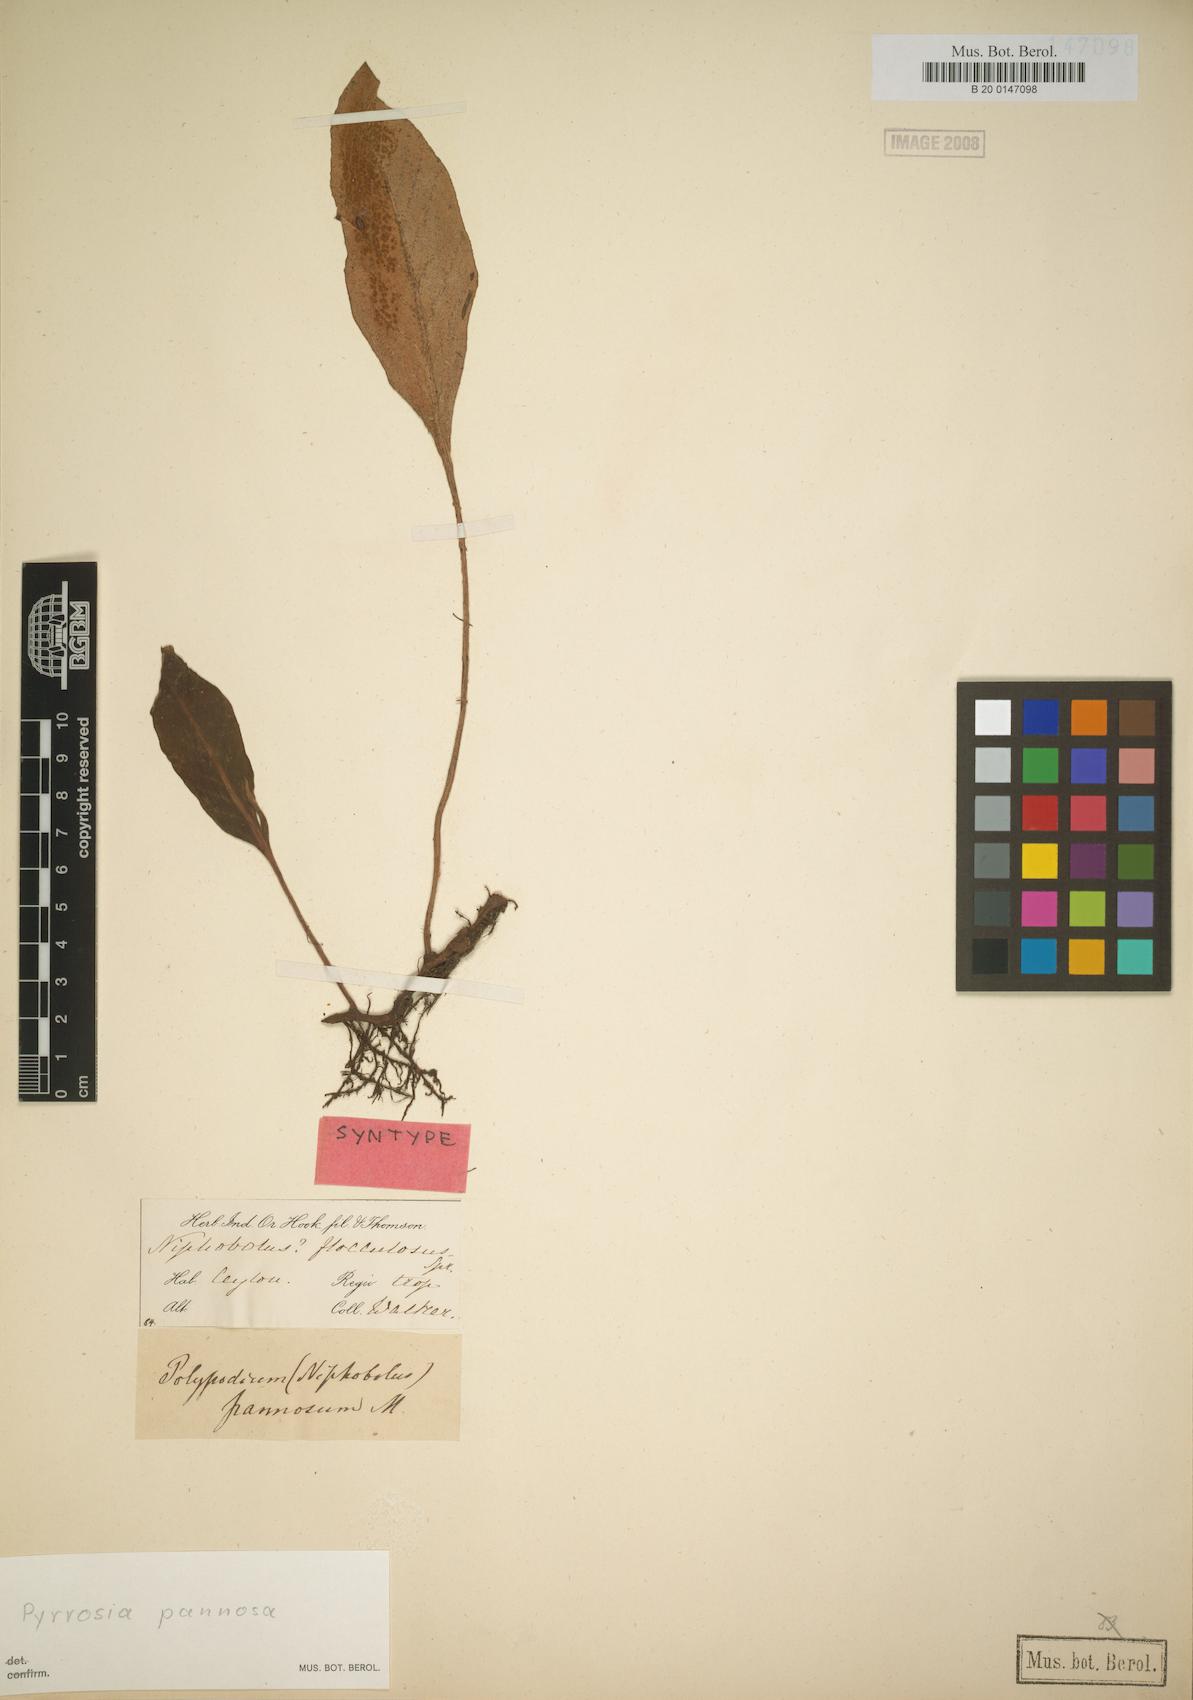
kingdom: Plantae
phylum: Tracheophyta
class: Polypodiopsida
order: Polypodiales
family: Polypodiaceae
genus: Pyrrosia
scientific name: Pyrrosia pannosa
